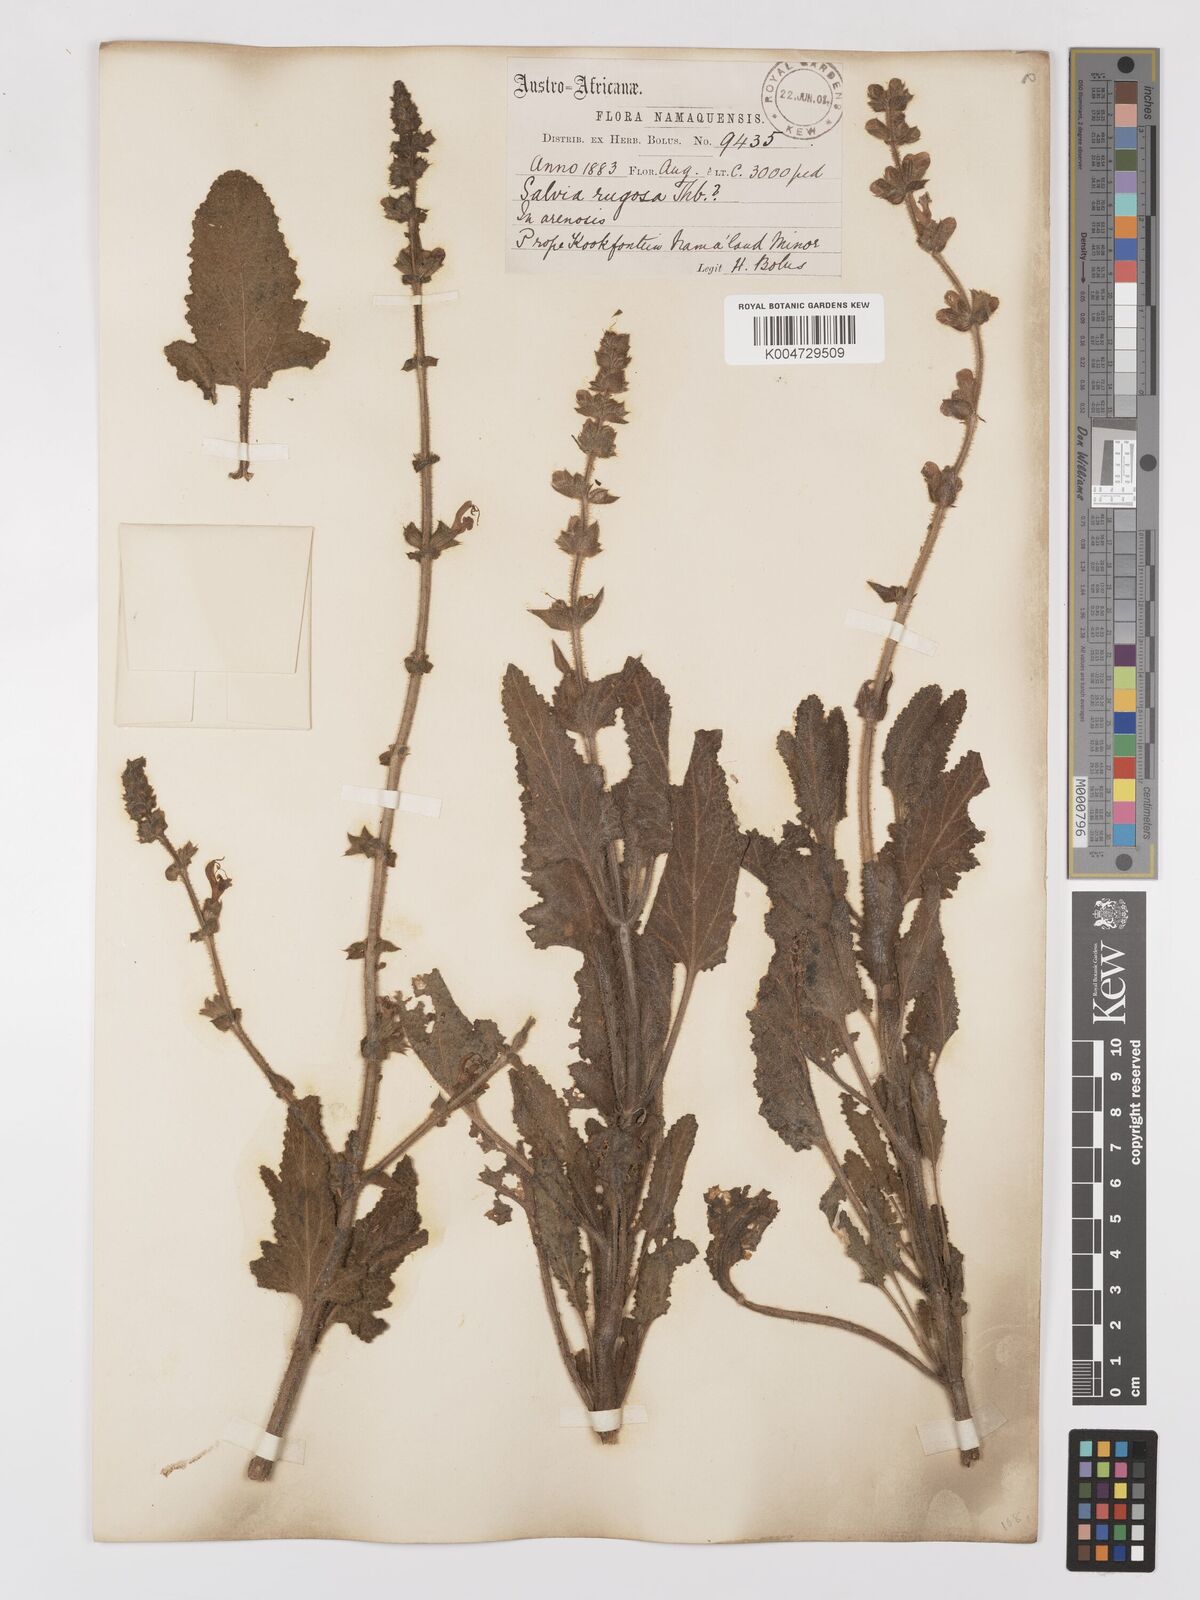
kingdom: Plantae
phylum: Tracheophyta
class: Magnoliopsida
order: Lamiales
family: Lamiaceae
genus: Salvia
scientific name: Salvia
